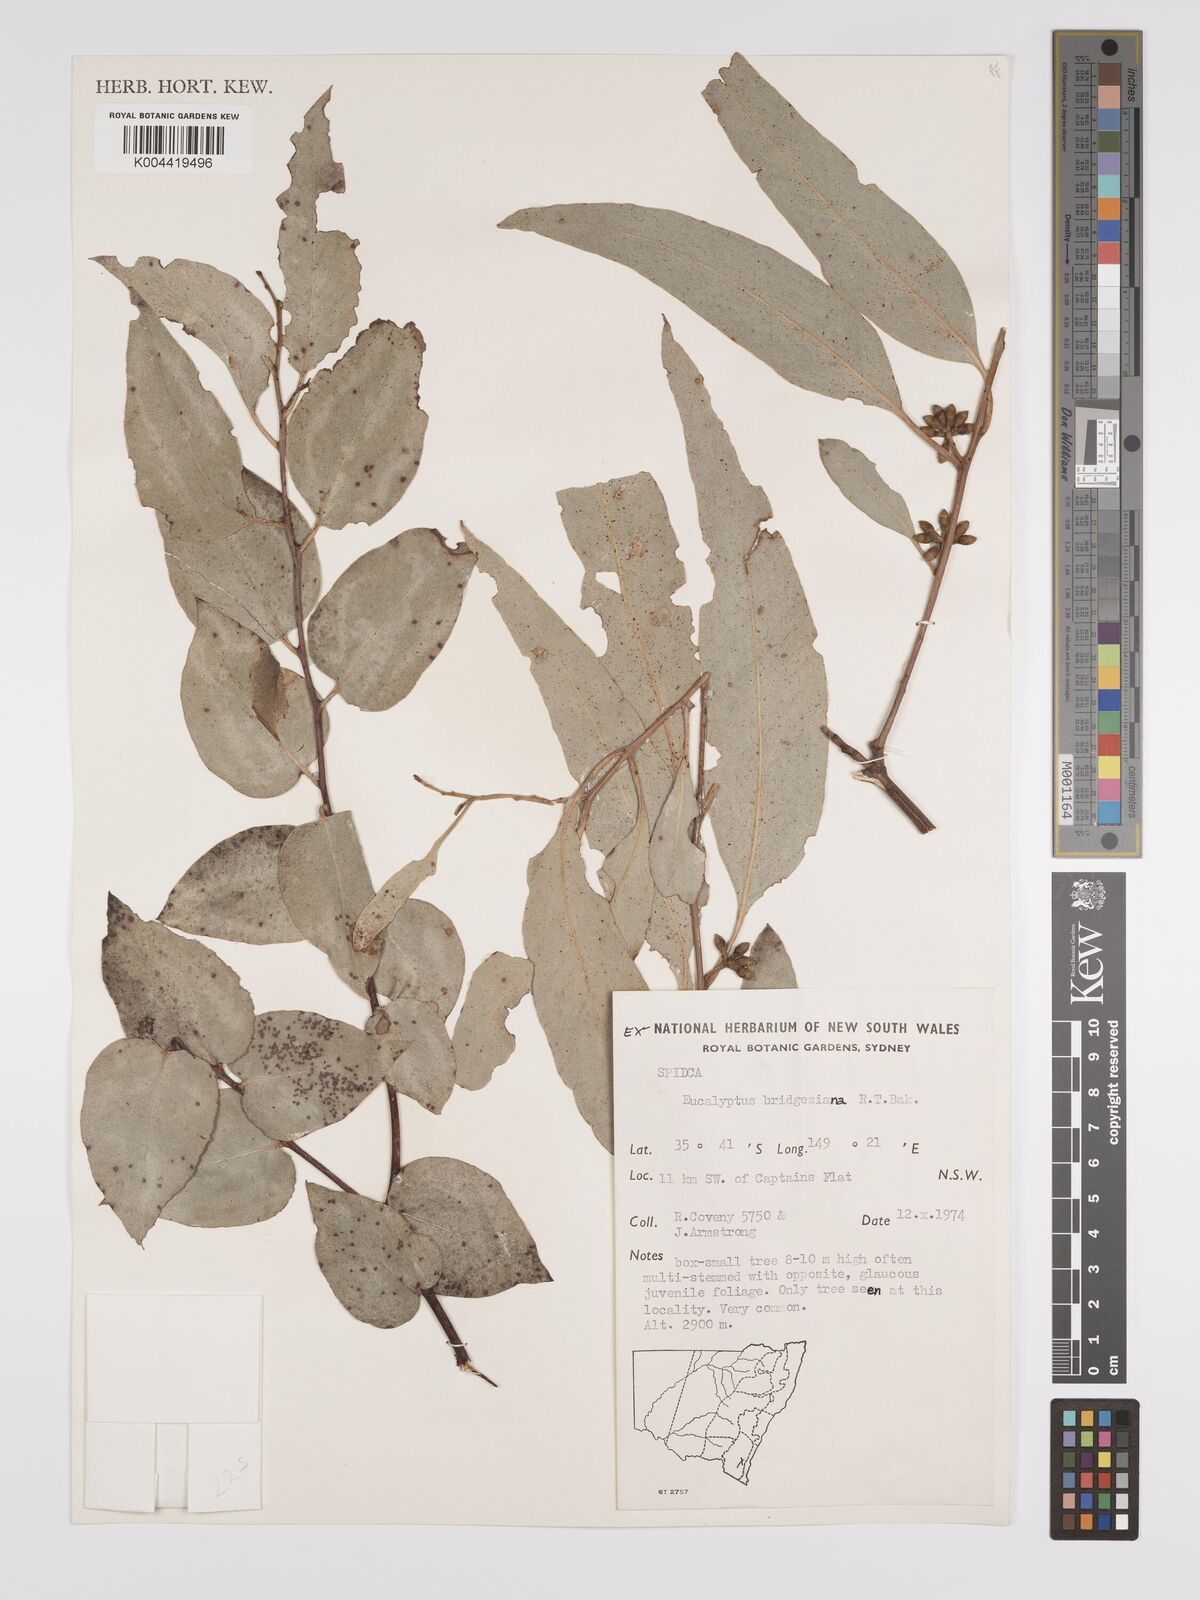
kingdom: Plantae
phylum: Tracheophyta
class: Magnoliopsida
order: Myrtales
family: Myrtaceae
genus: Eucalyptus
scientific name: Eucalyptus bridgesiana
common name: Applebox
